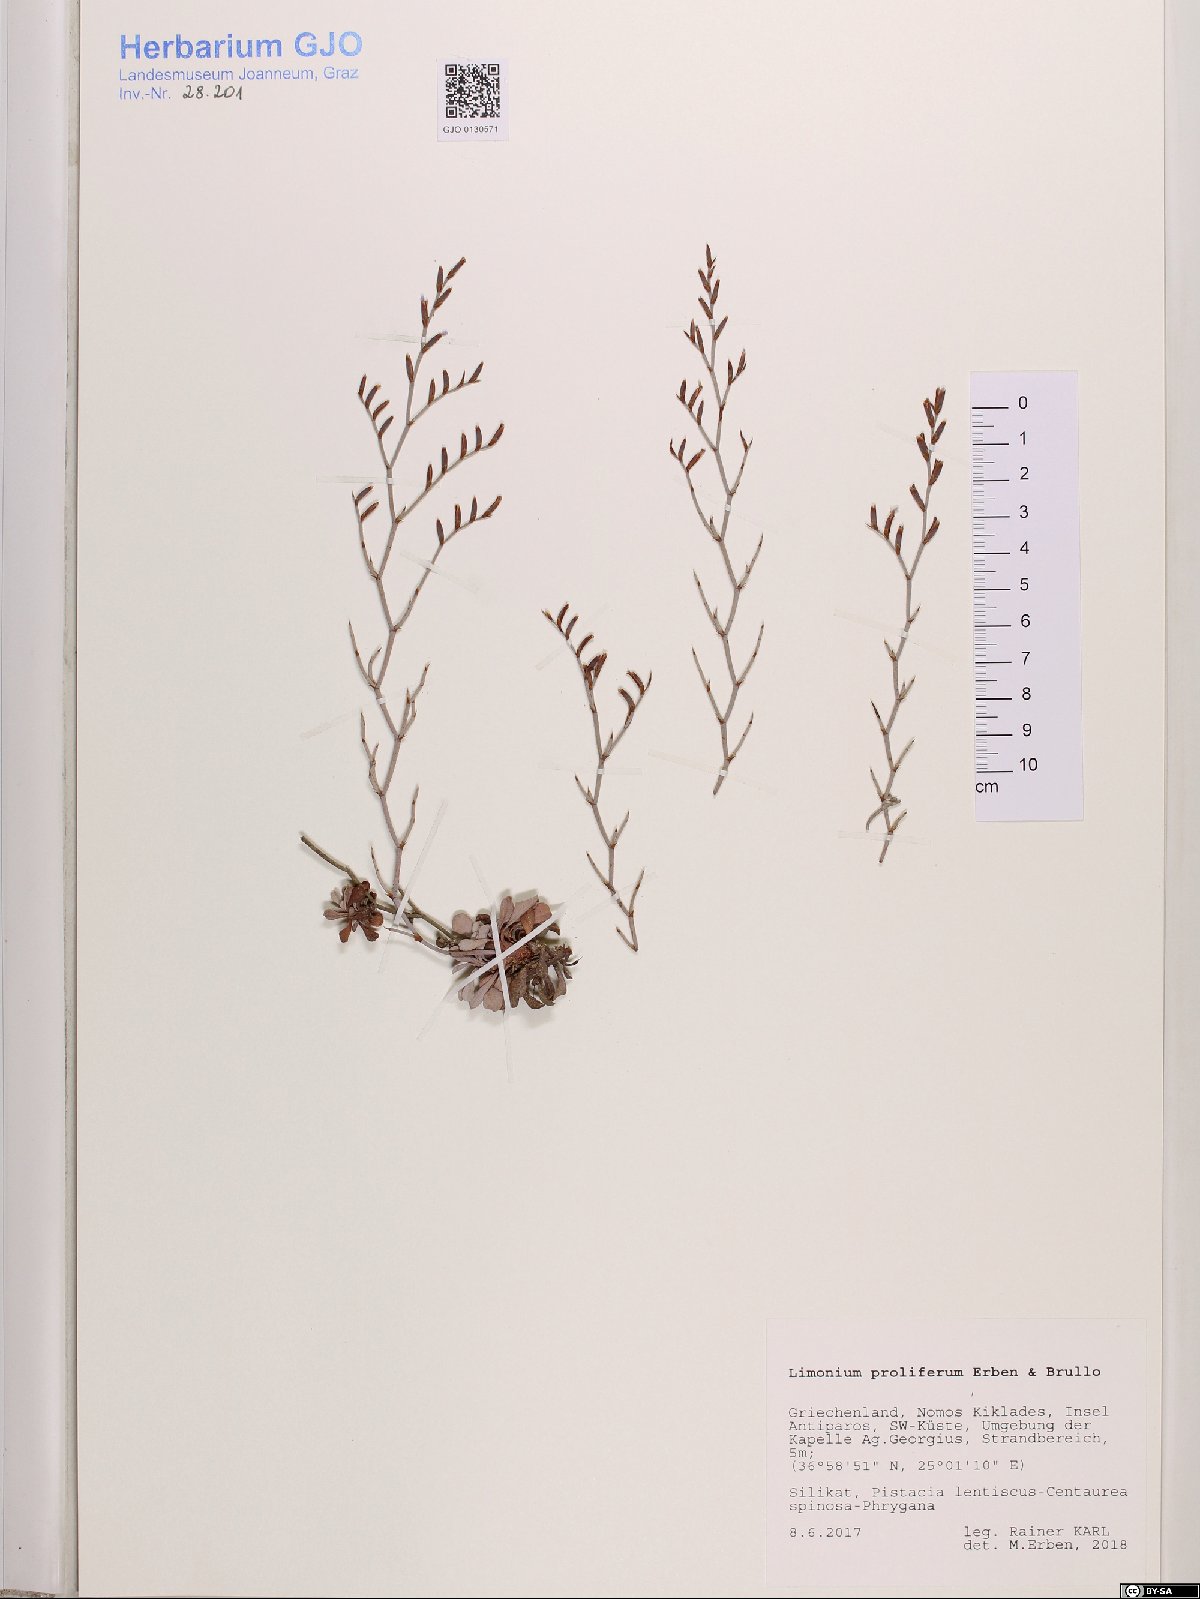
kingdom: Plantae
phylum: Tracheophyta
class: Magnoliopsida
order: Caryophyllales
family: Plumbaginaceae
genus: Limonium
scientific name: Limonium proliferum
